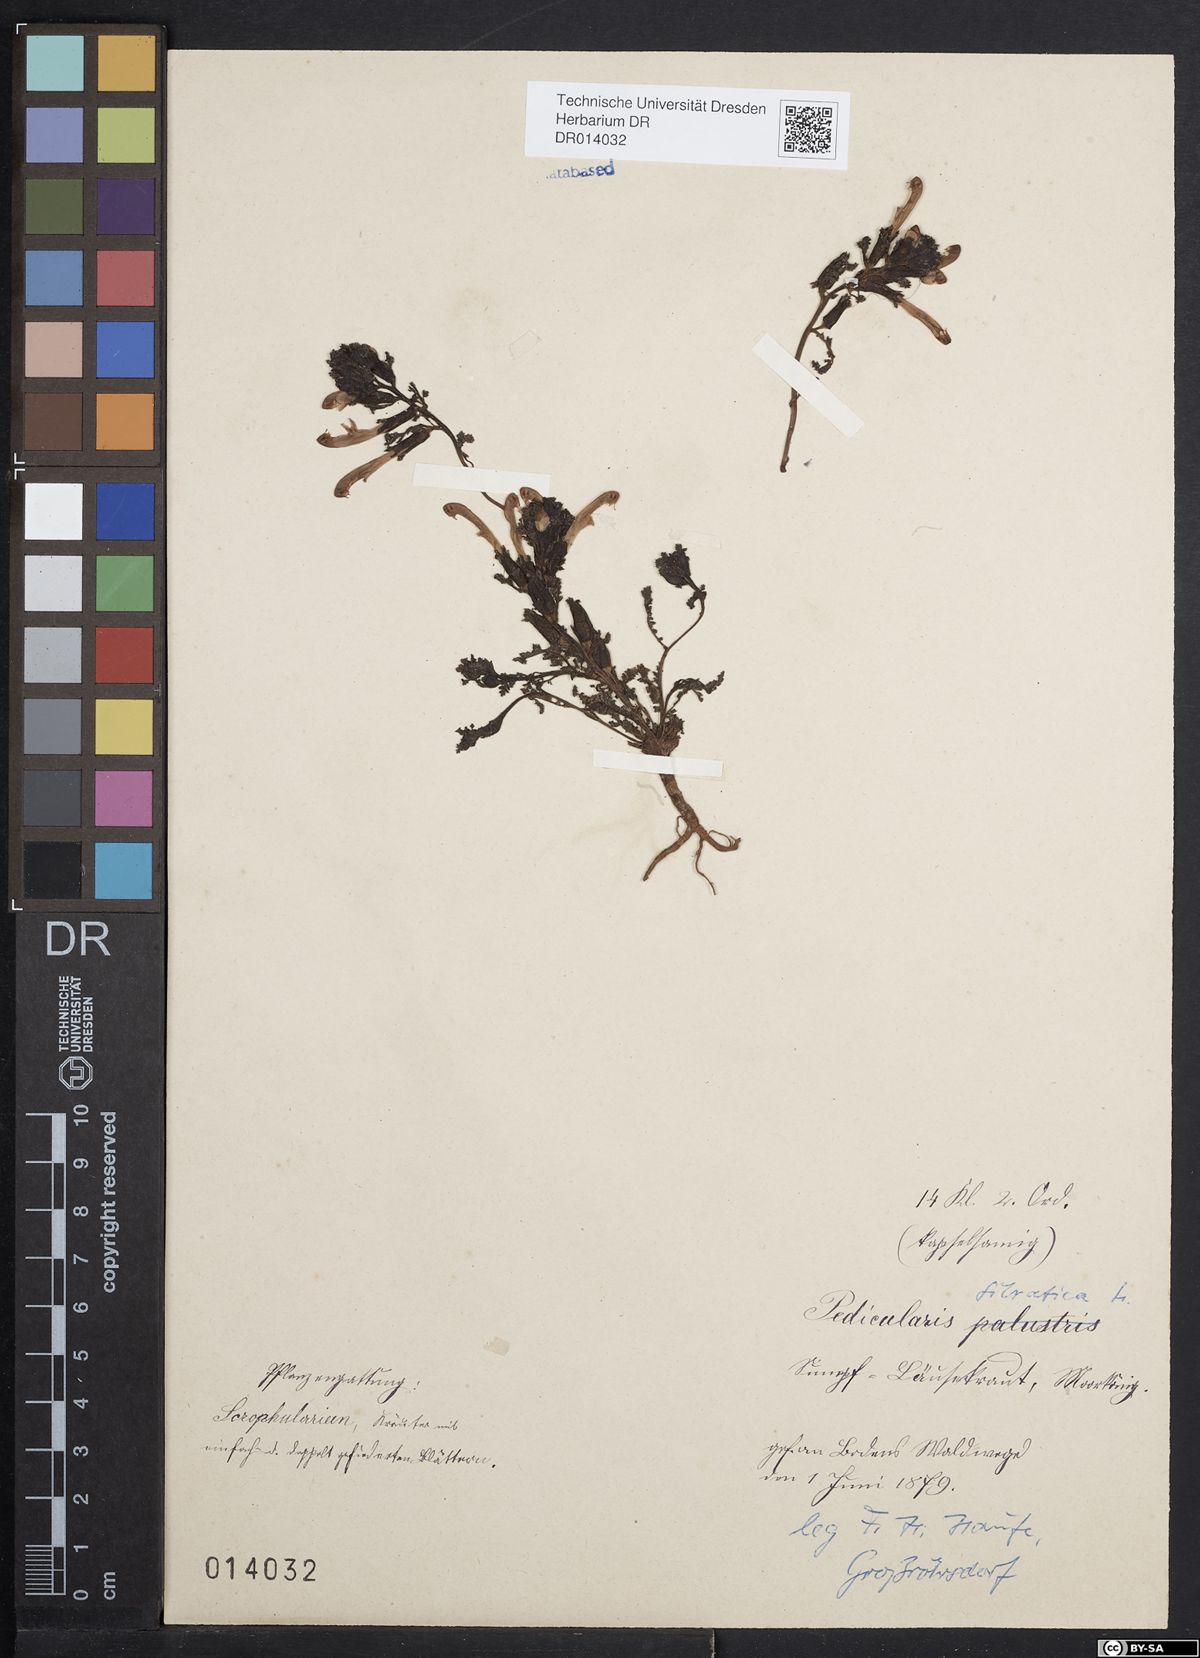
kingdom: Plantae
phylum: Tracheophyta
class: Magnoliopsida
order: Lamiales
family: Orobanchaceae
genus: Pedicularis
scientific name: Pedicularis sylvatica
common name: Lousewort
